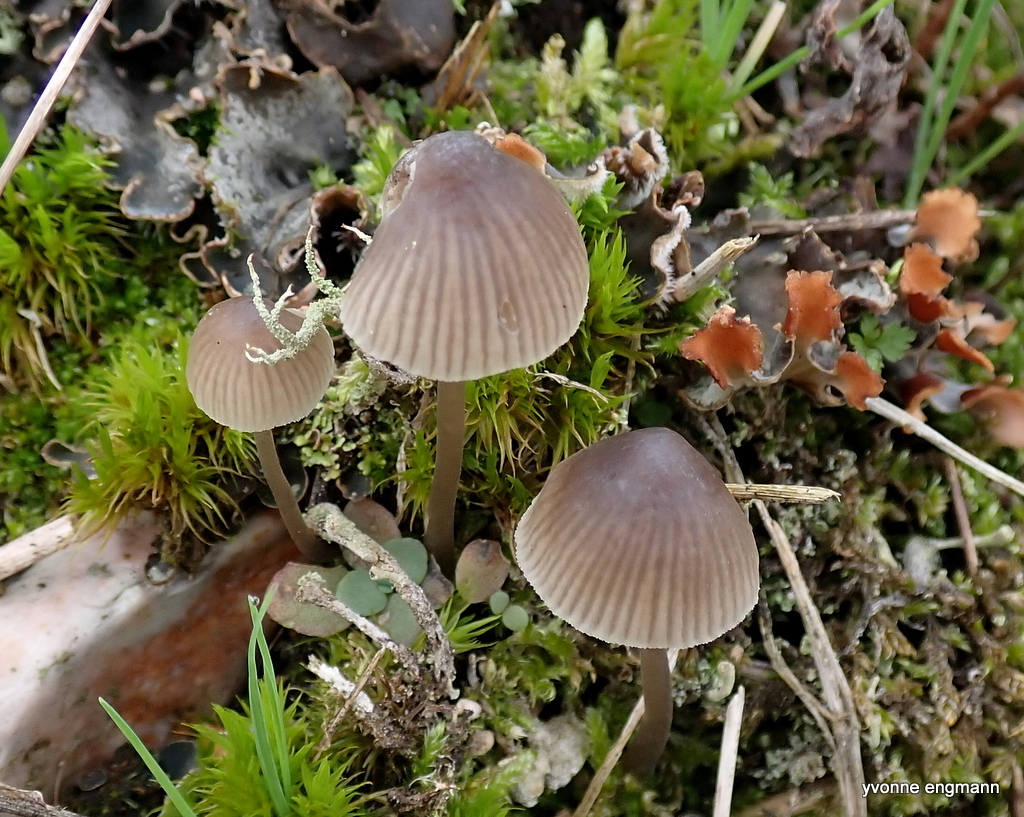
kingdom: Fungi
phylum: Basidiomycota
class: Agaricomycetes
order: Agaricales
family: Mycenaceae
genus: Mycena
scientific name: Mycena
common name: huesvamp
